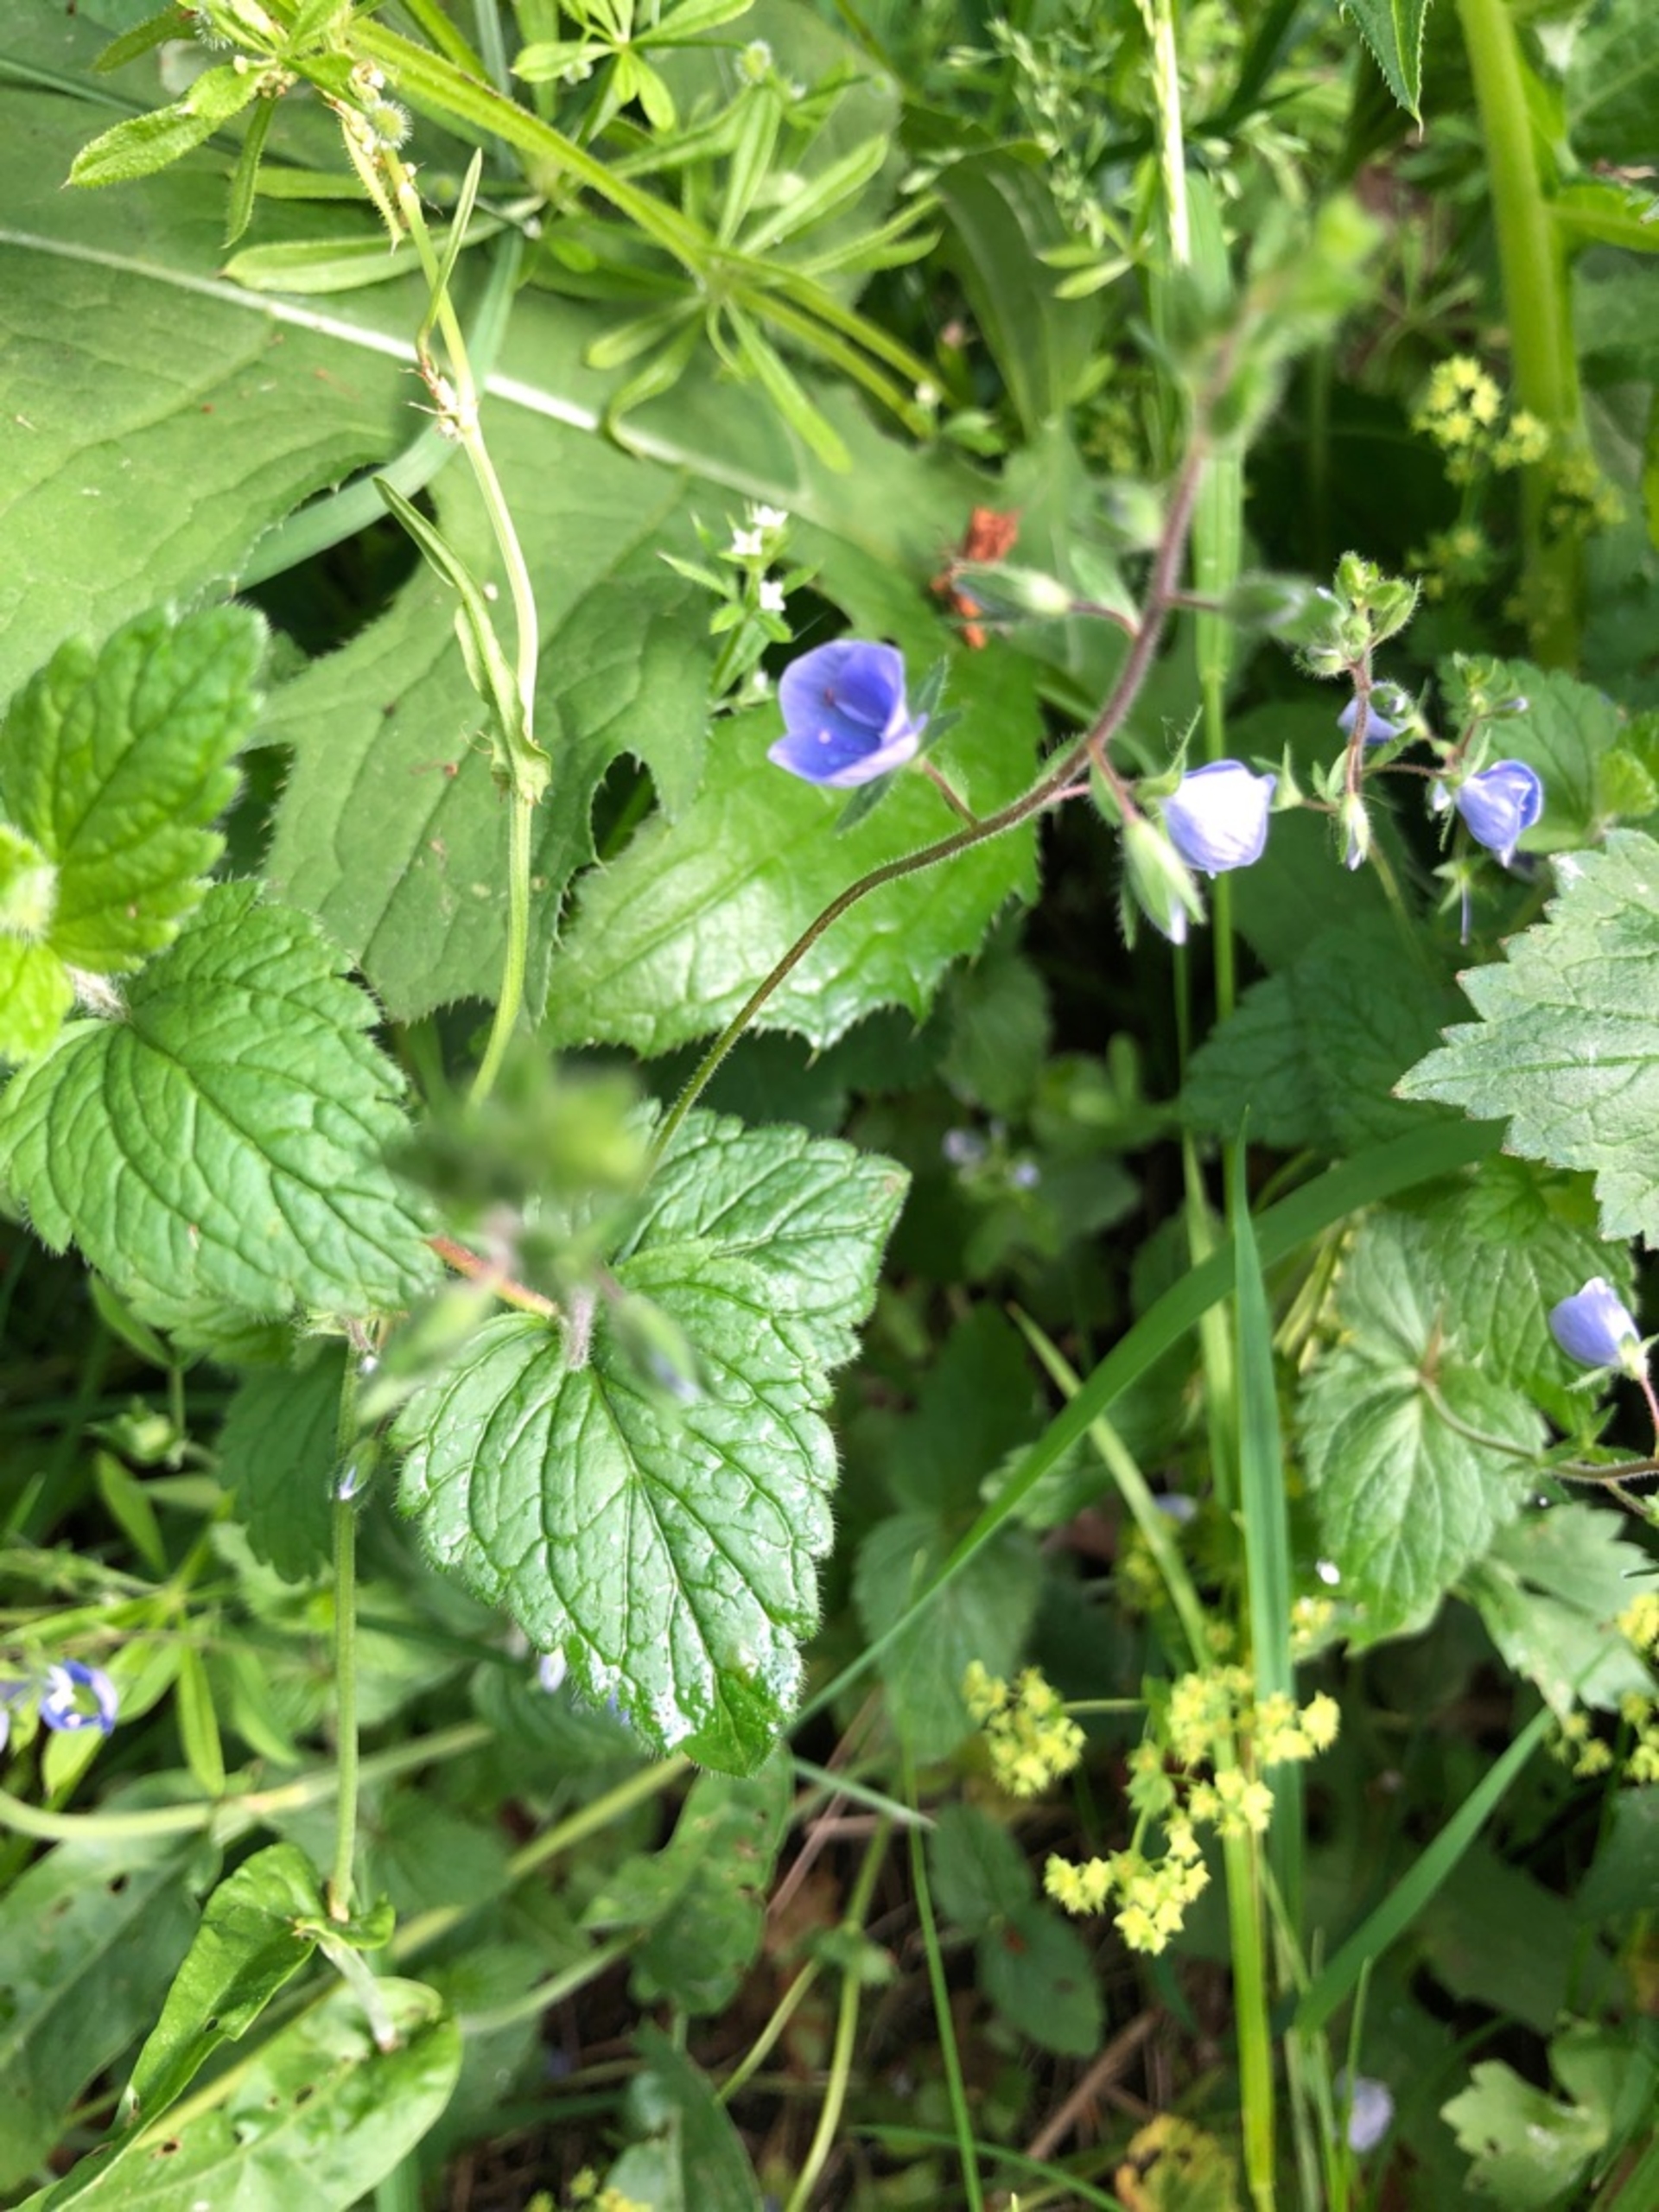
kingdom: Plantae
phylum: Tracheophyta
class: Magnoliopsida
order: Lamiales
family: Plantaginaceae
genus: Veronica
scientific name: Veronica chamaedrys
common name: Tveskægget ærenpris
